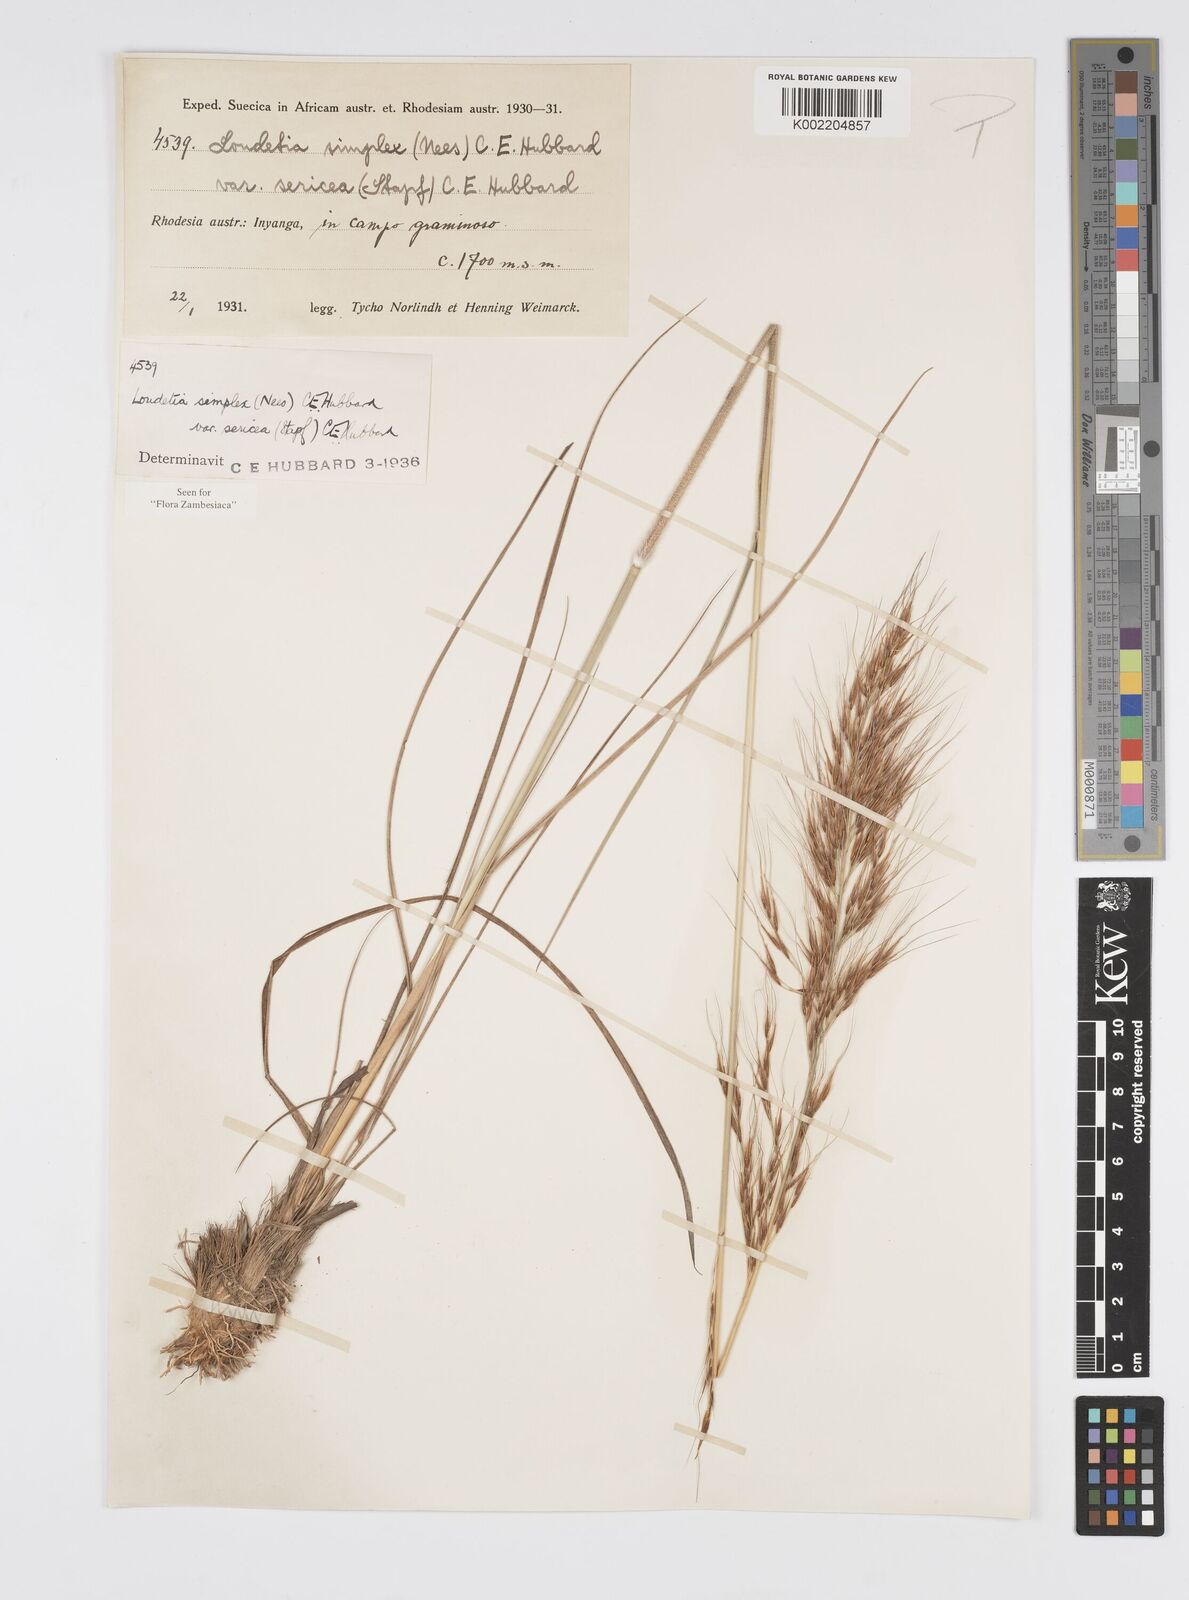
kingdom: Plantae
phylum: Tracheophyta
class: Liliopsida
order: Poales
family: Poaceae
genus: Loudetia
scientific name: Loudetia simplex
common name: Common russet grass
